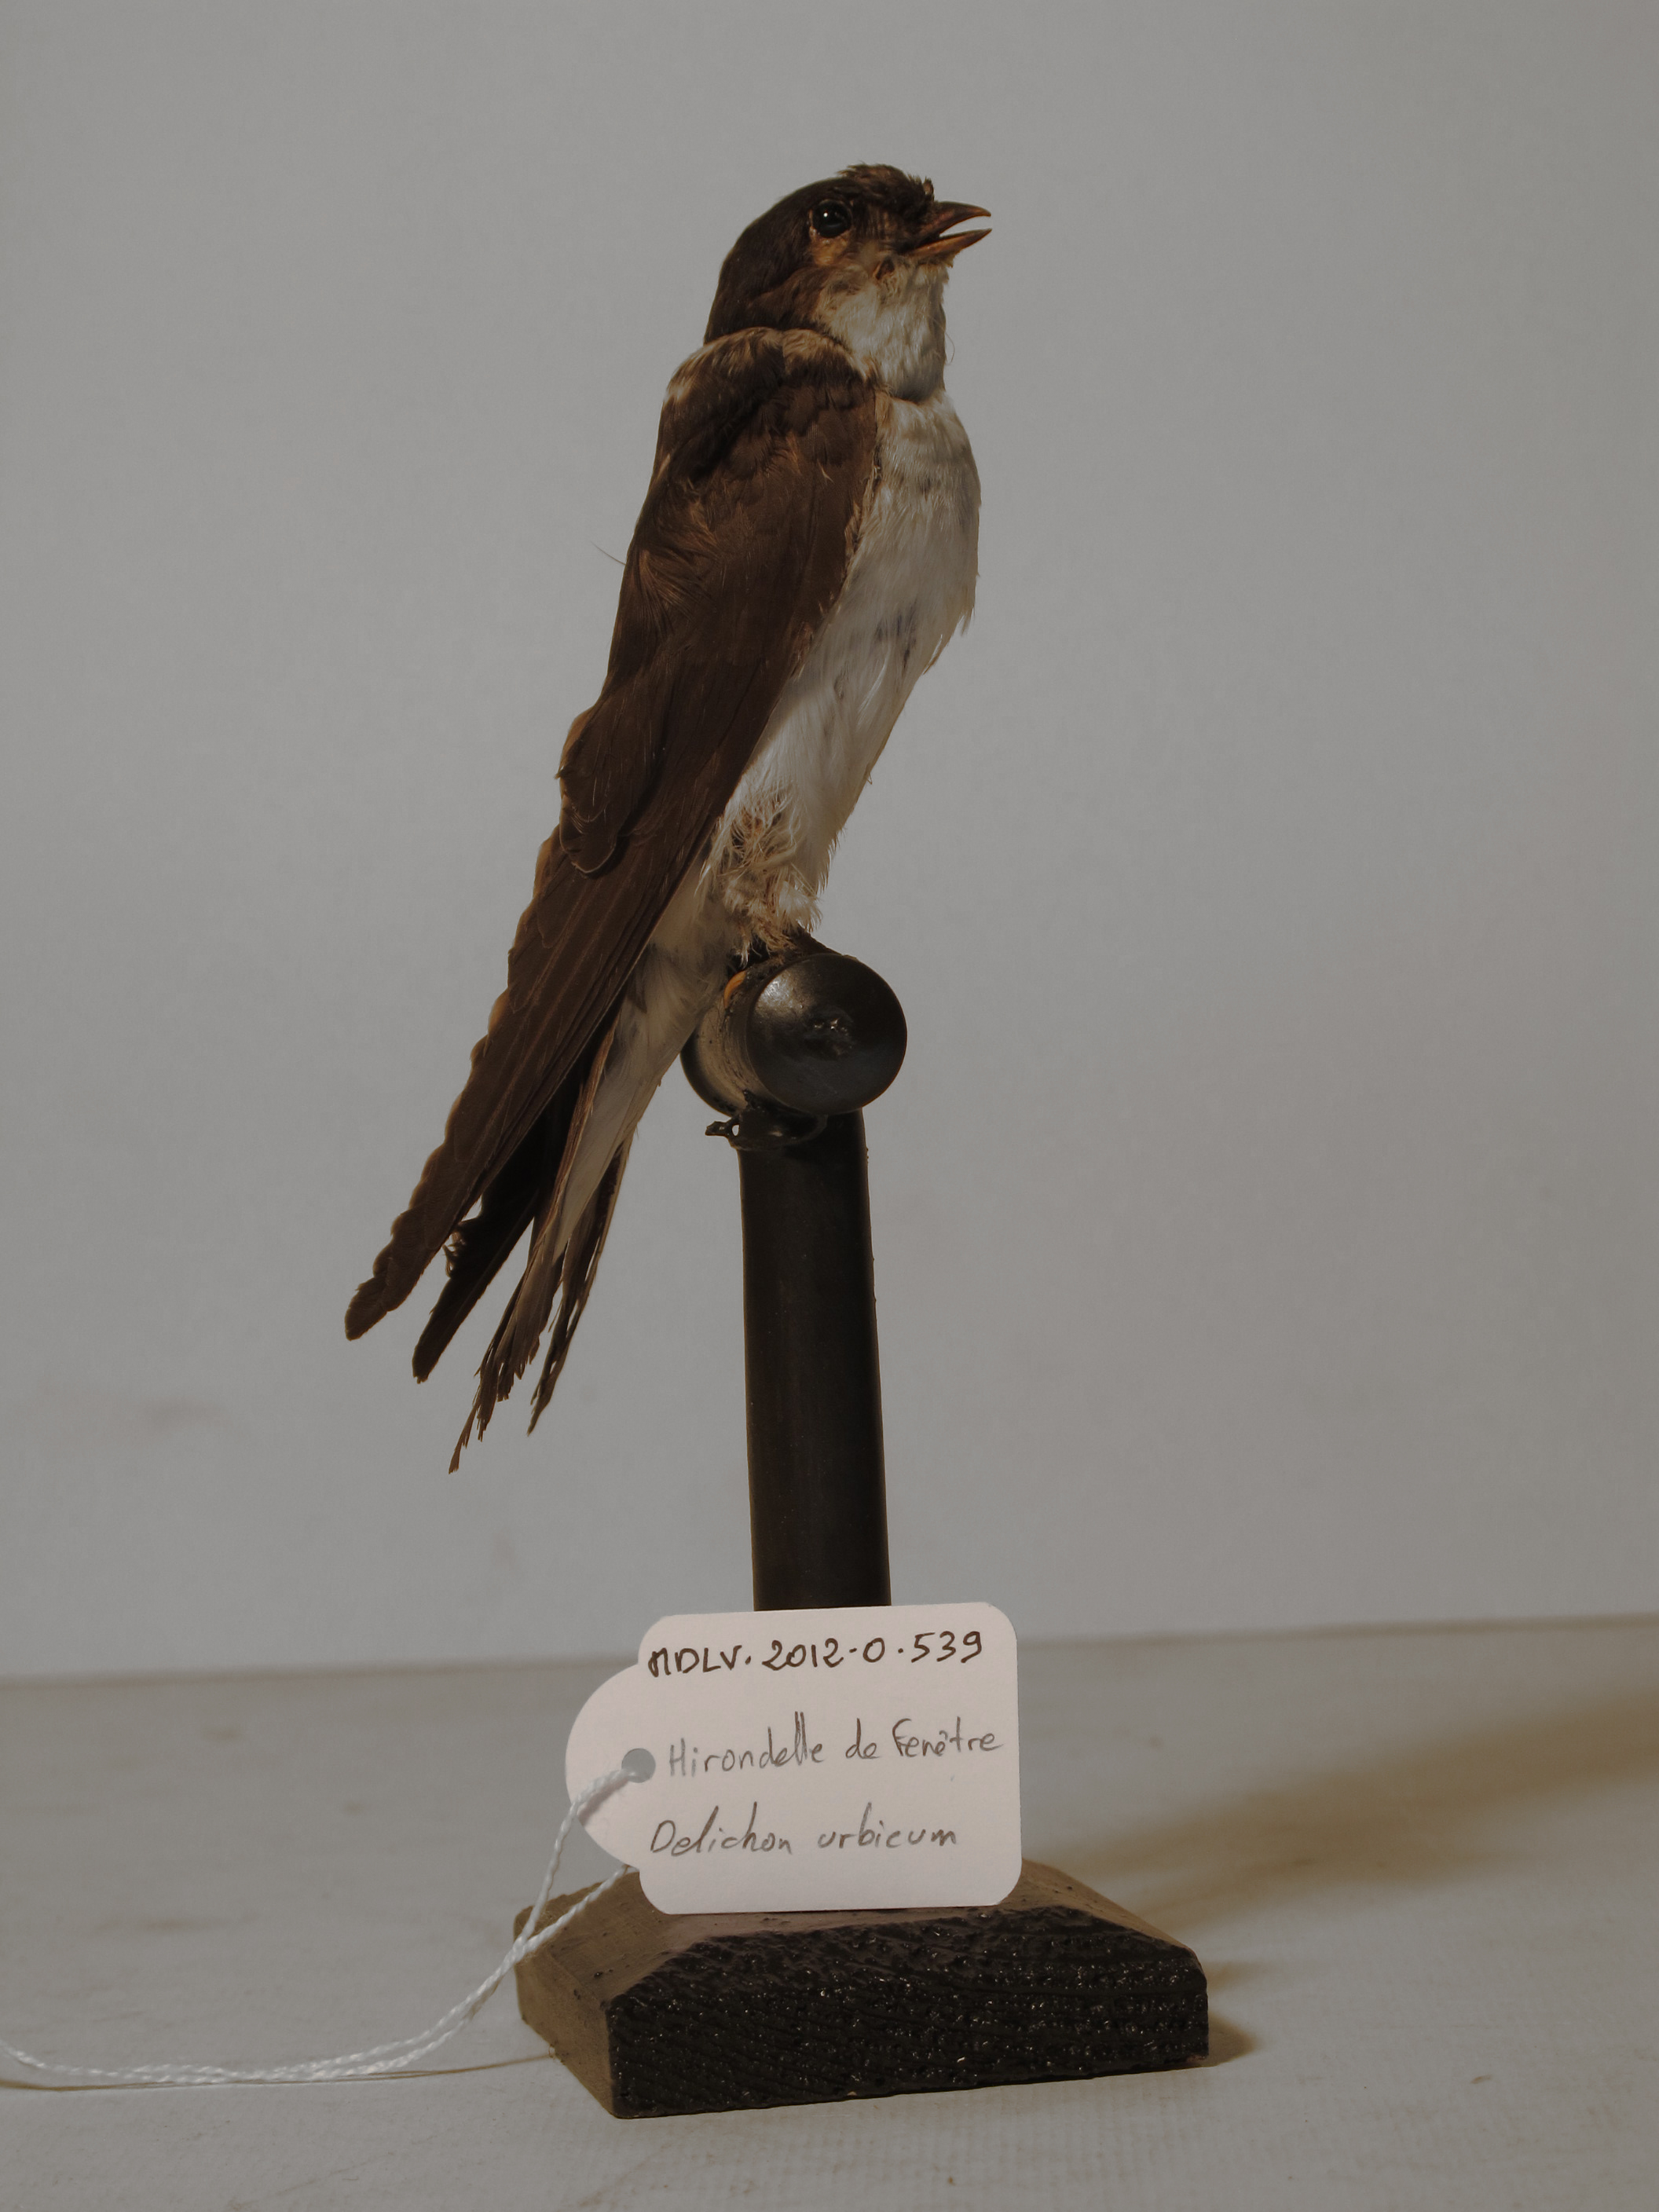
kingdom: Animalia
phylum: Chordata
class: Aves
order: Passeriformes
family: Hirundinidae
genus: Delichon
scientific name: Delichon urbicum
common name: Northern House Martin
